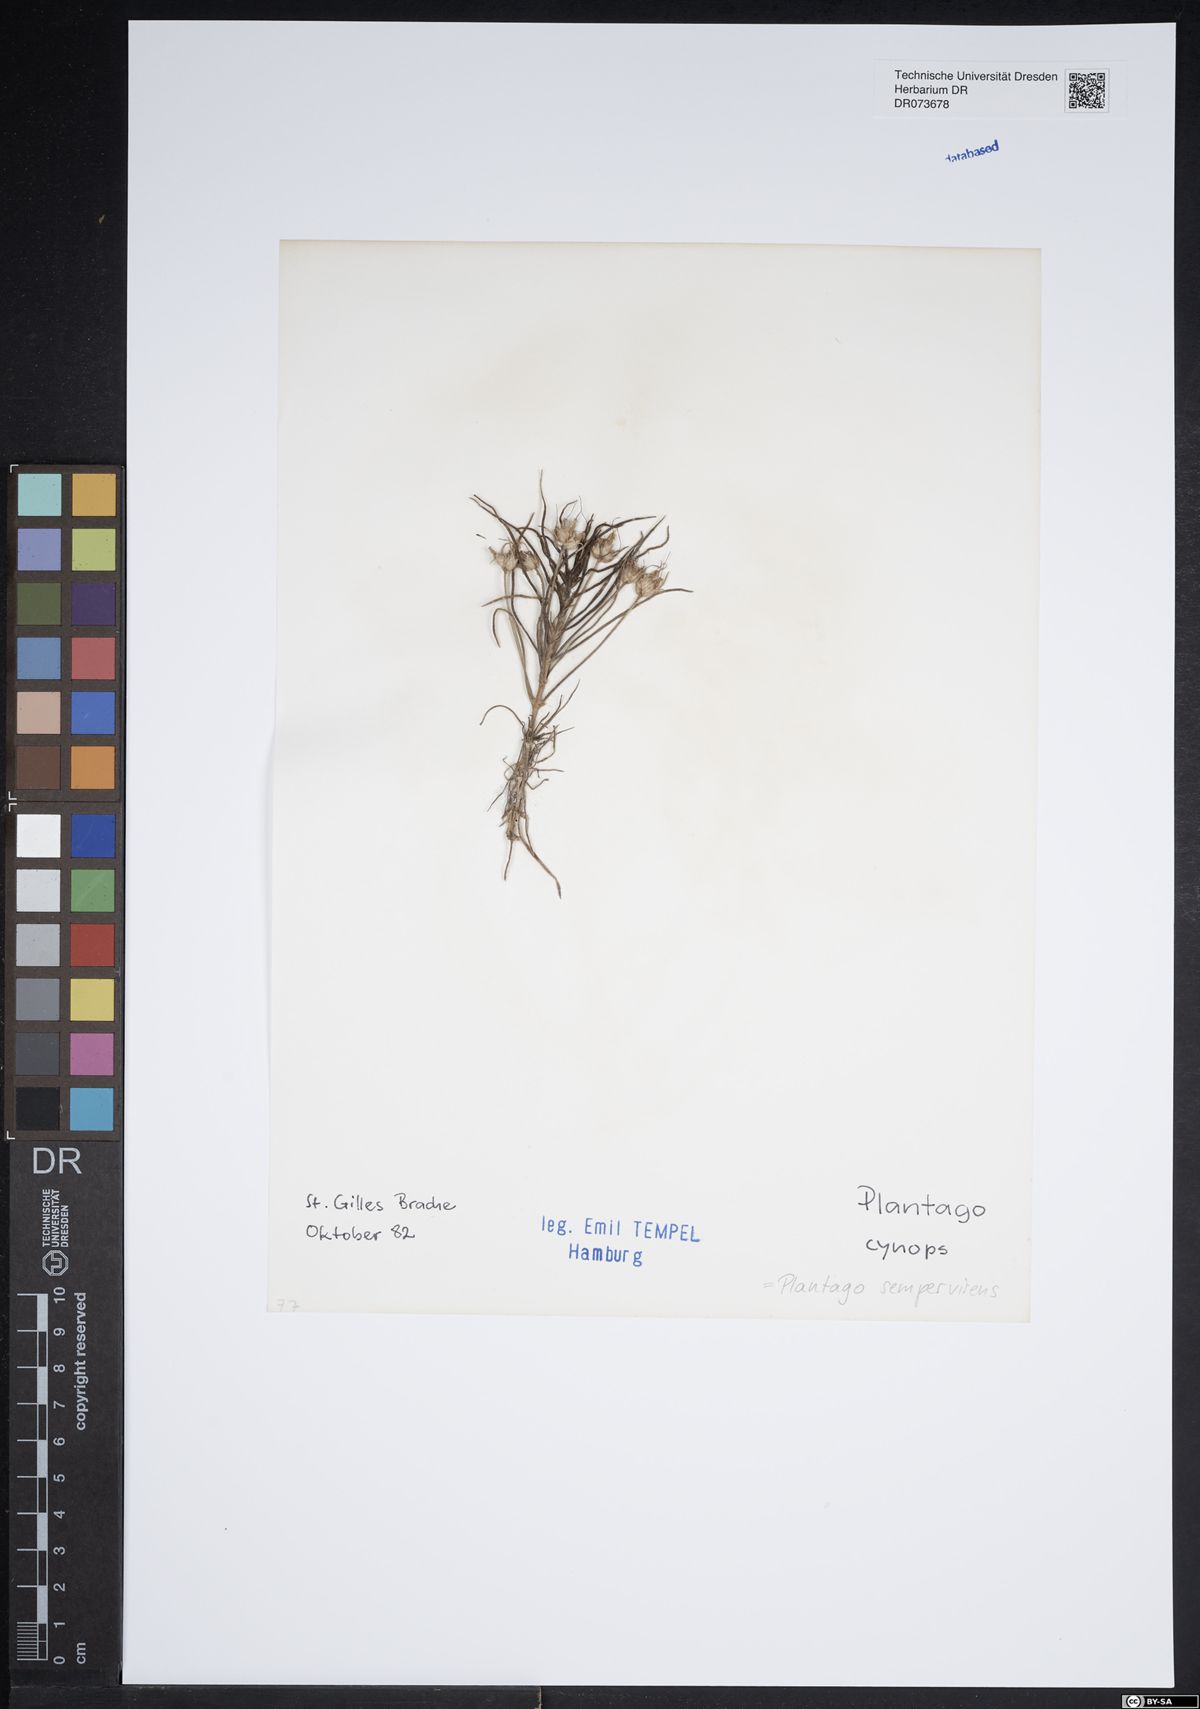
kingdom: Plantae
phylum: Tracheophyta
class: Magnoliopsida
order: Lamiales
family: Plantaginaceae
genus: Plantago
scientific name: Plantago sempervirens
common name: Shrubby plantain
